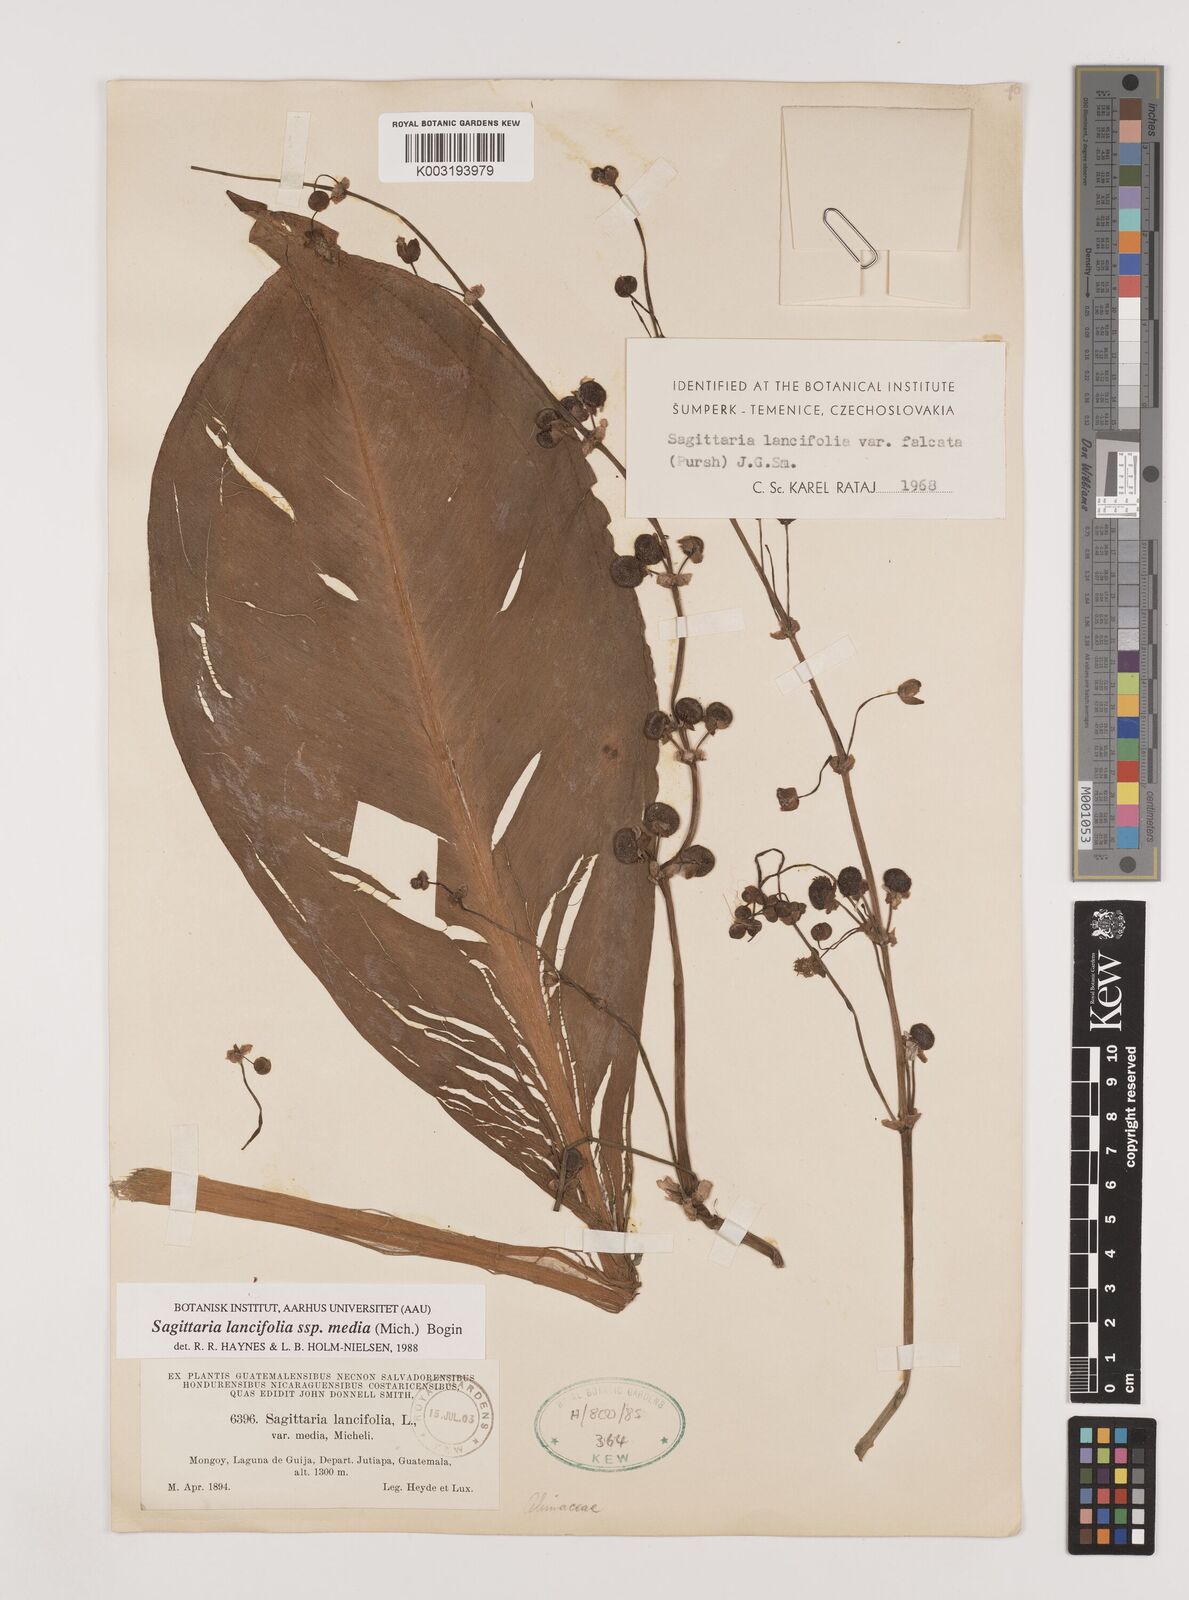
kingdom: Plantae
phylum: Tracheophyta
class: Liliopsida
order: Alismatales
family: Alismataceae
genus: Sagittaria
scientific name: Sagittaria lancifolia
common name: Lance-leaf arrowhead
